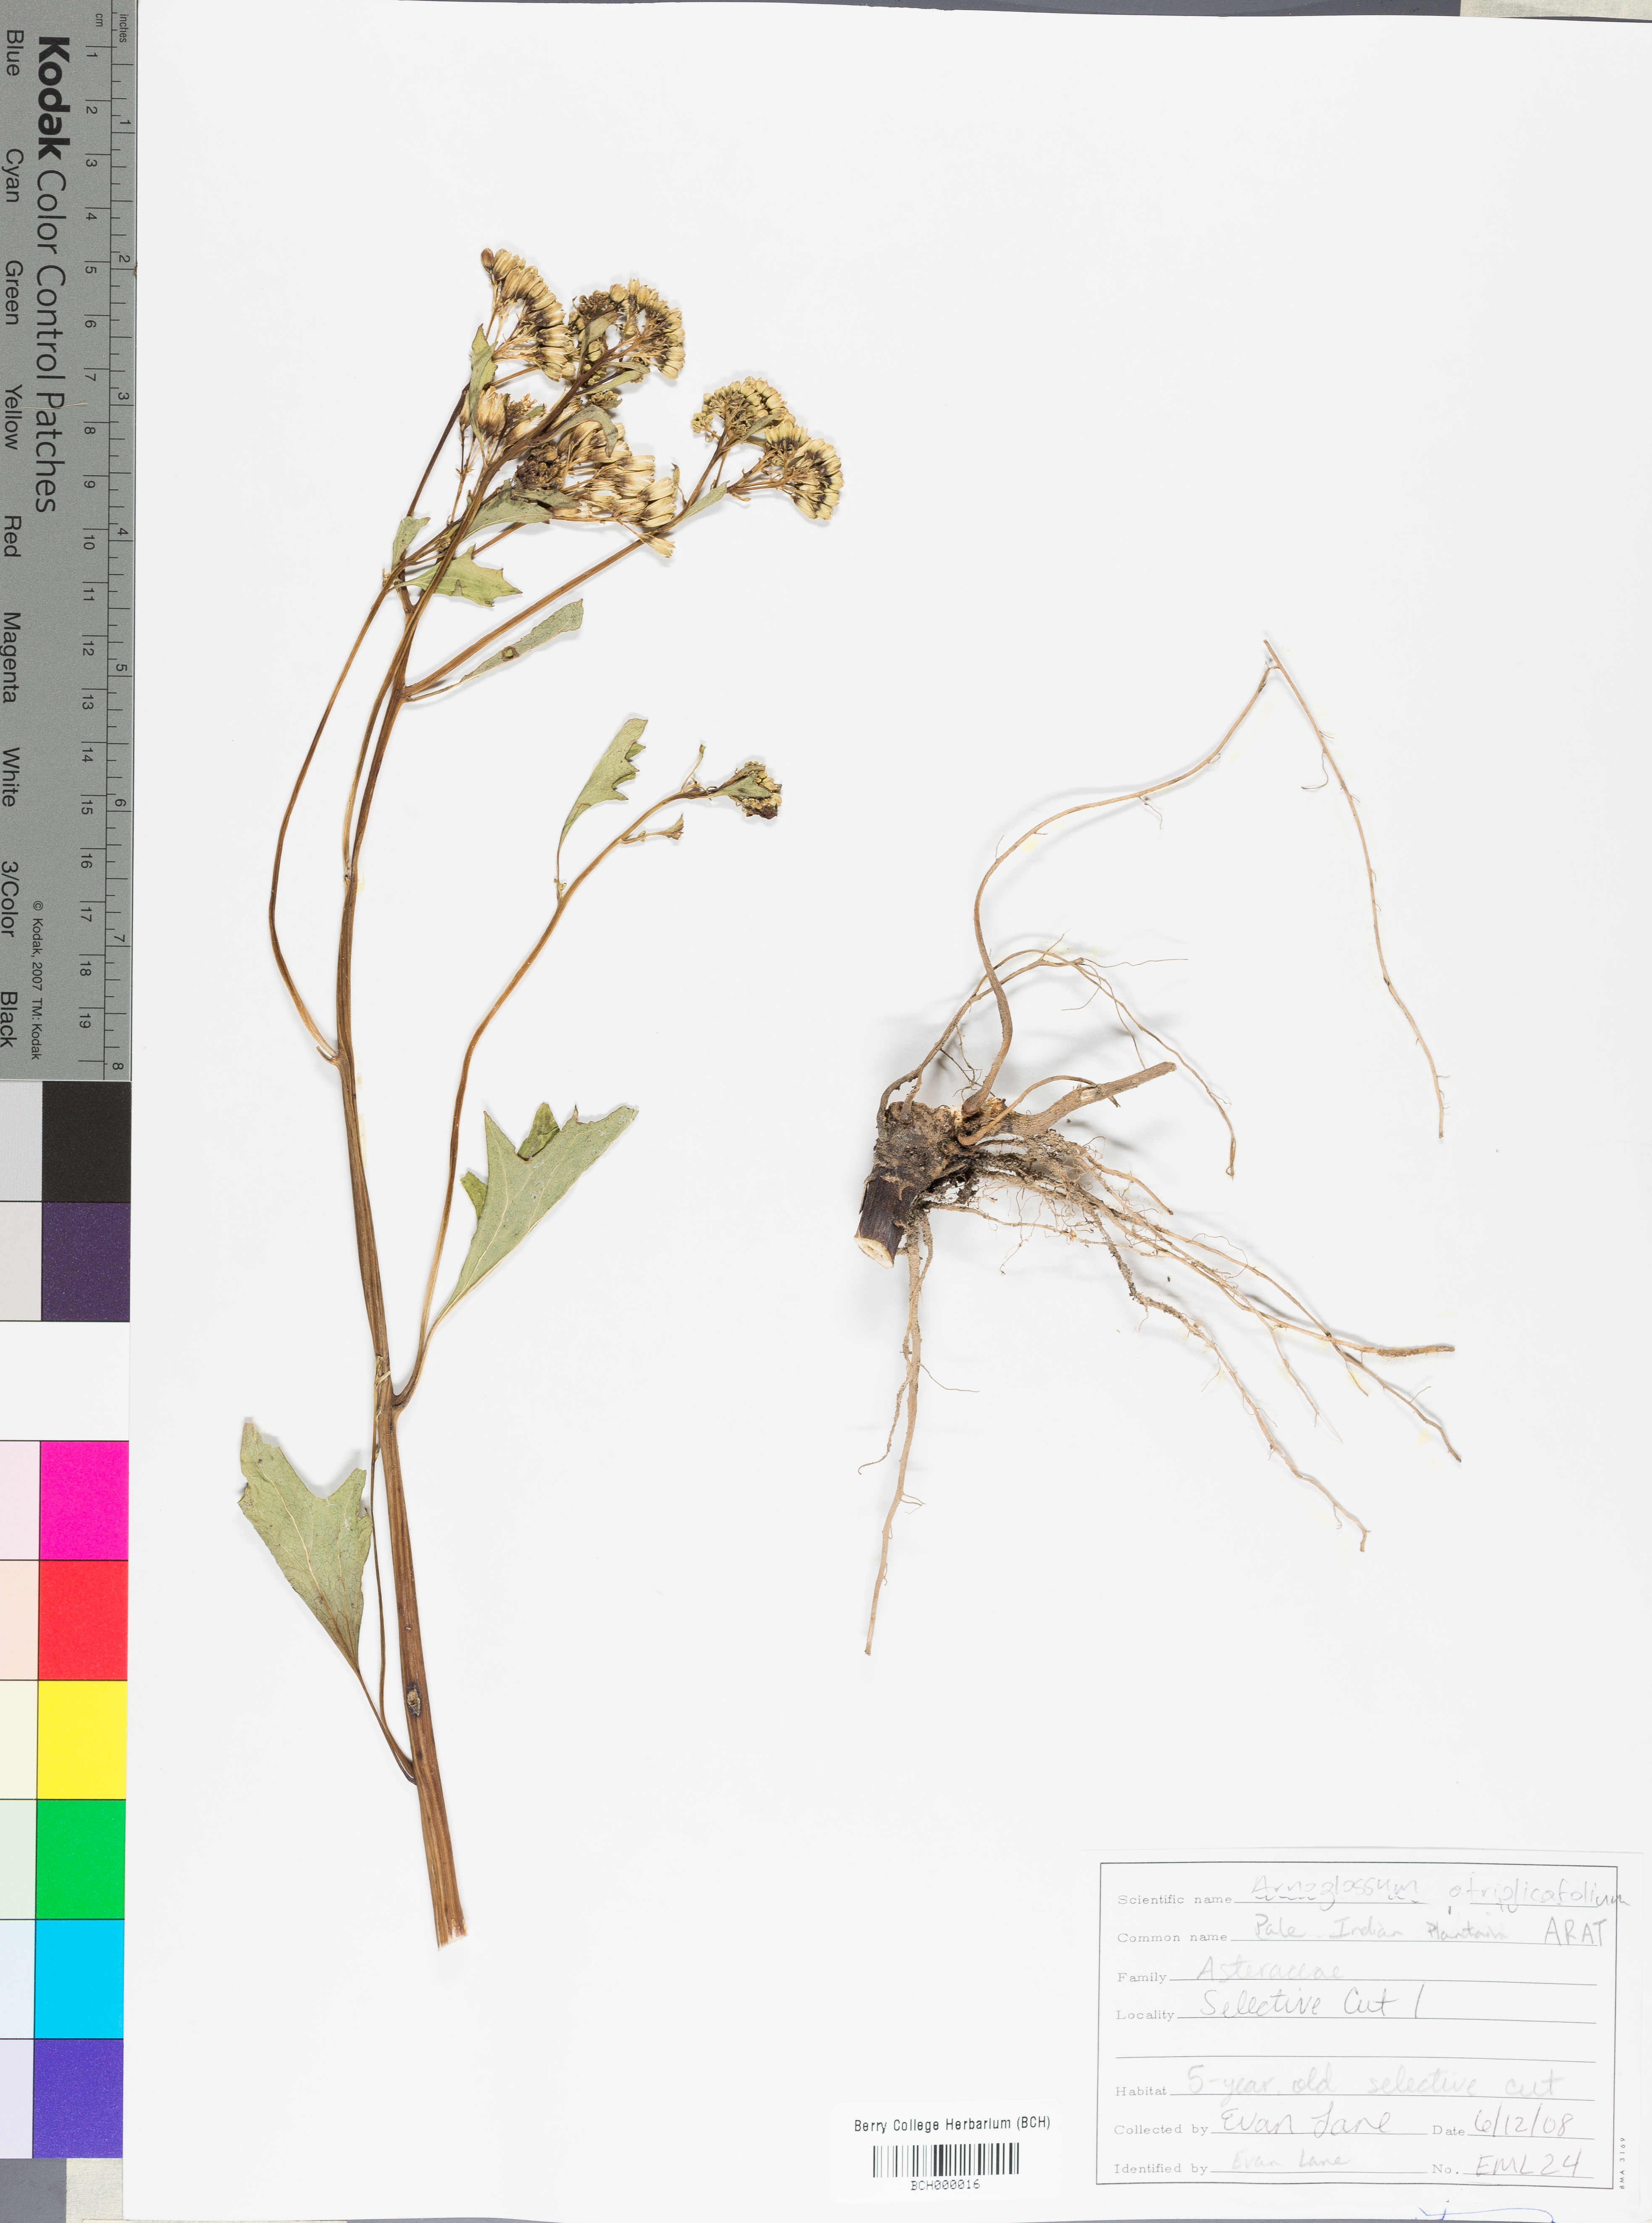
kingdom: Plantae
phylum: Tracheophyta
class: Magnoliopsida
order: Asterales
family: Asteraceae
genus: Arnoglossum
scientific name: Arnoglossum atriplicifolium
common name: Pale indian-plantain
